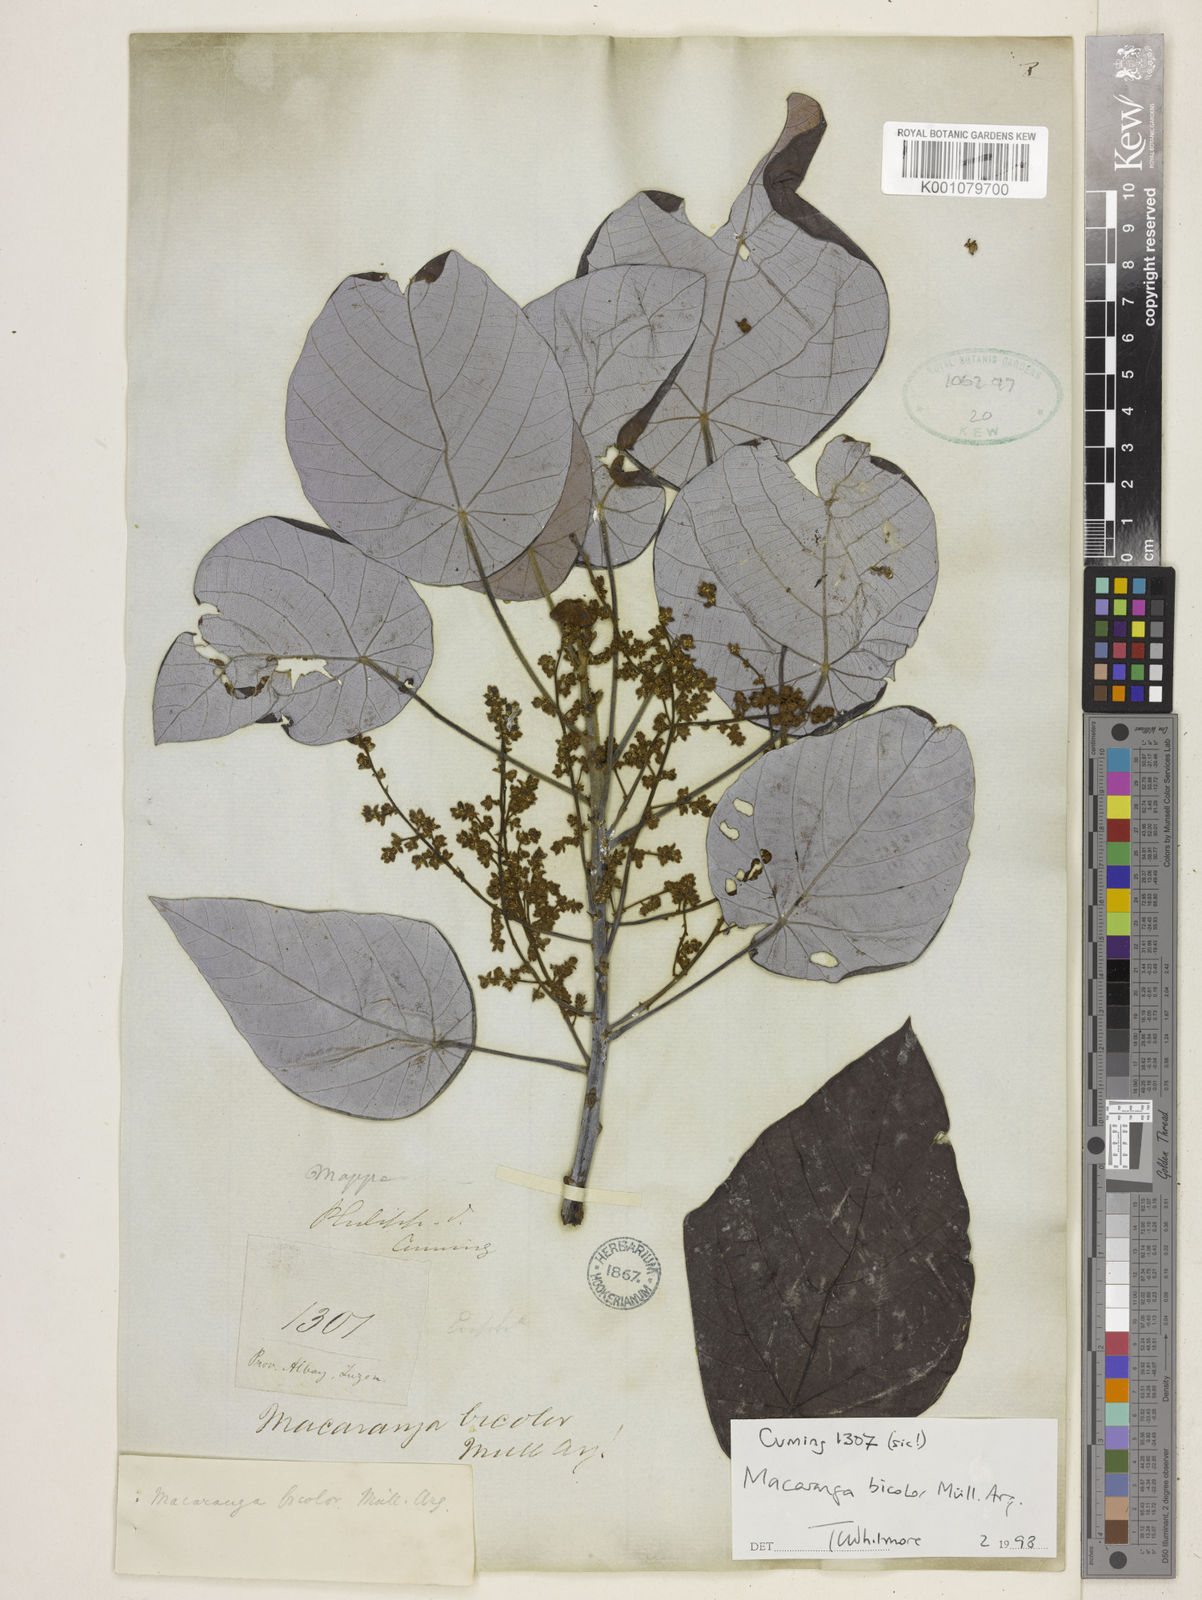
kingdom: Plantae
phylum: Tracheophyta
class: Magnoliopsida
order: Malpighiales
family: Euphorbiaceae
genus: Macaranga
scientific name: Macaranga
